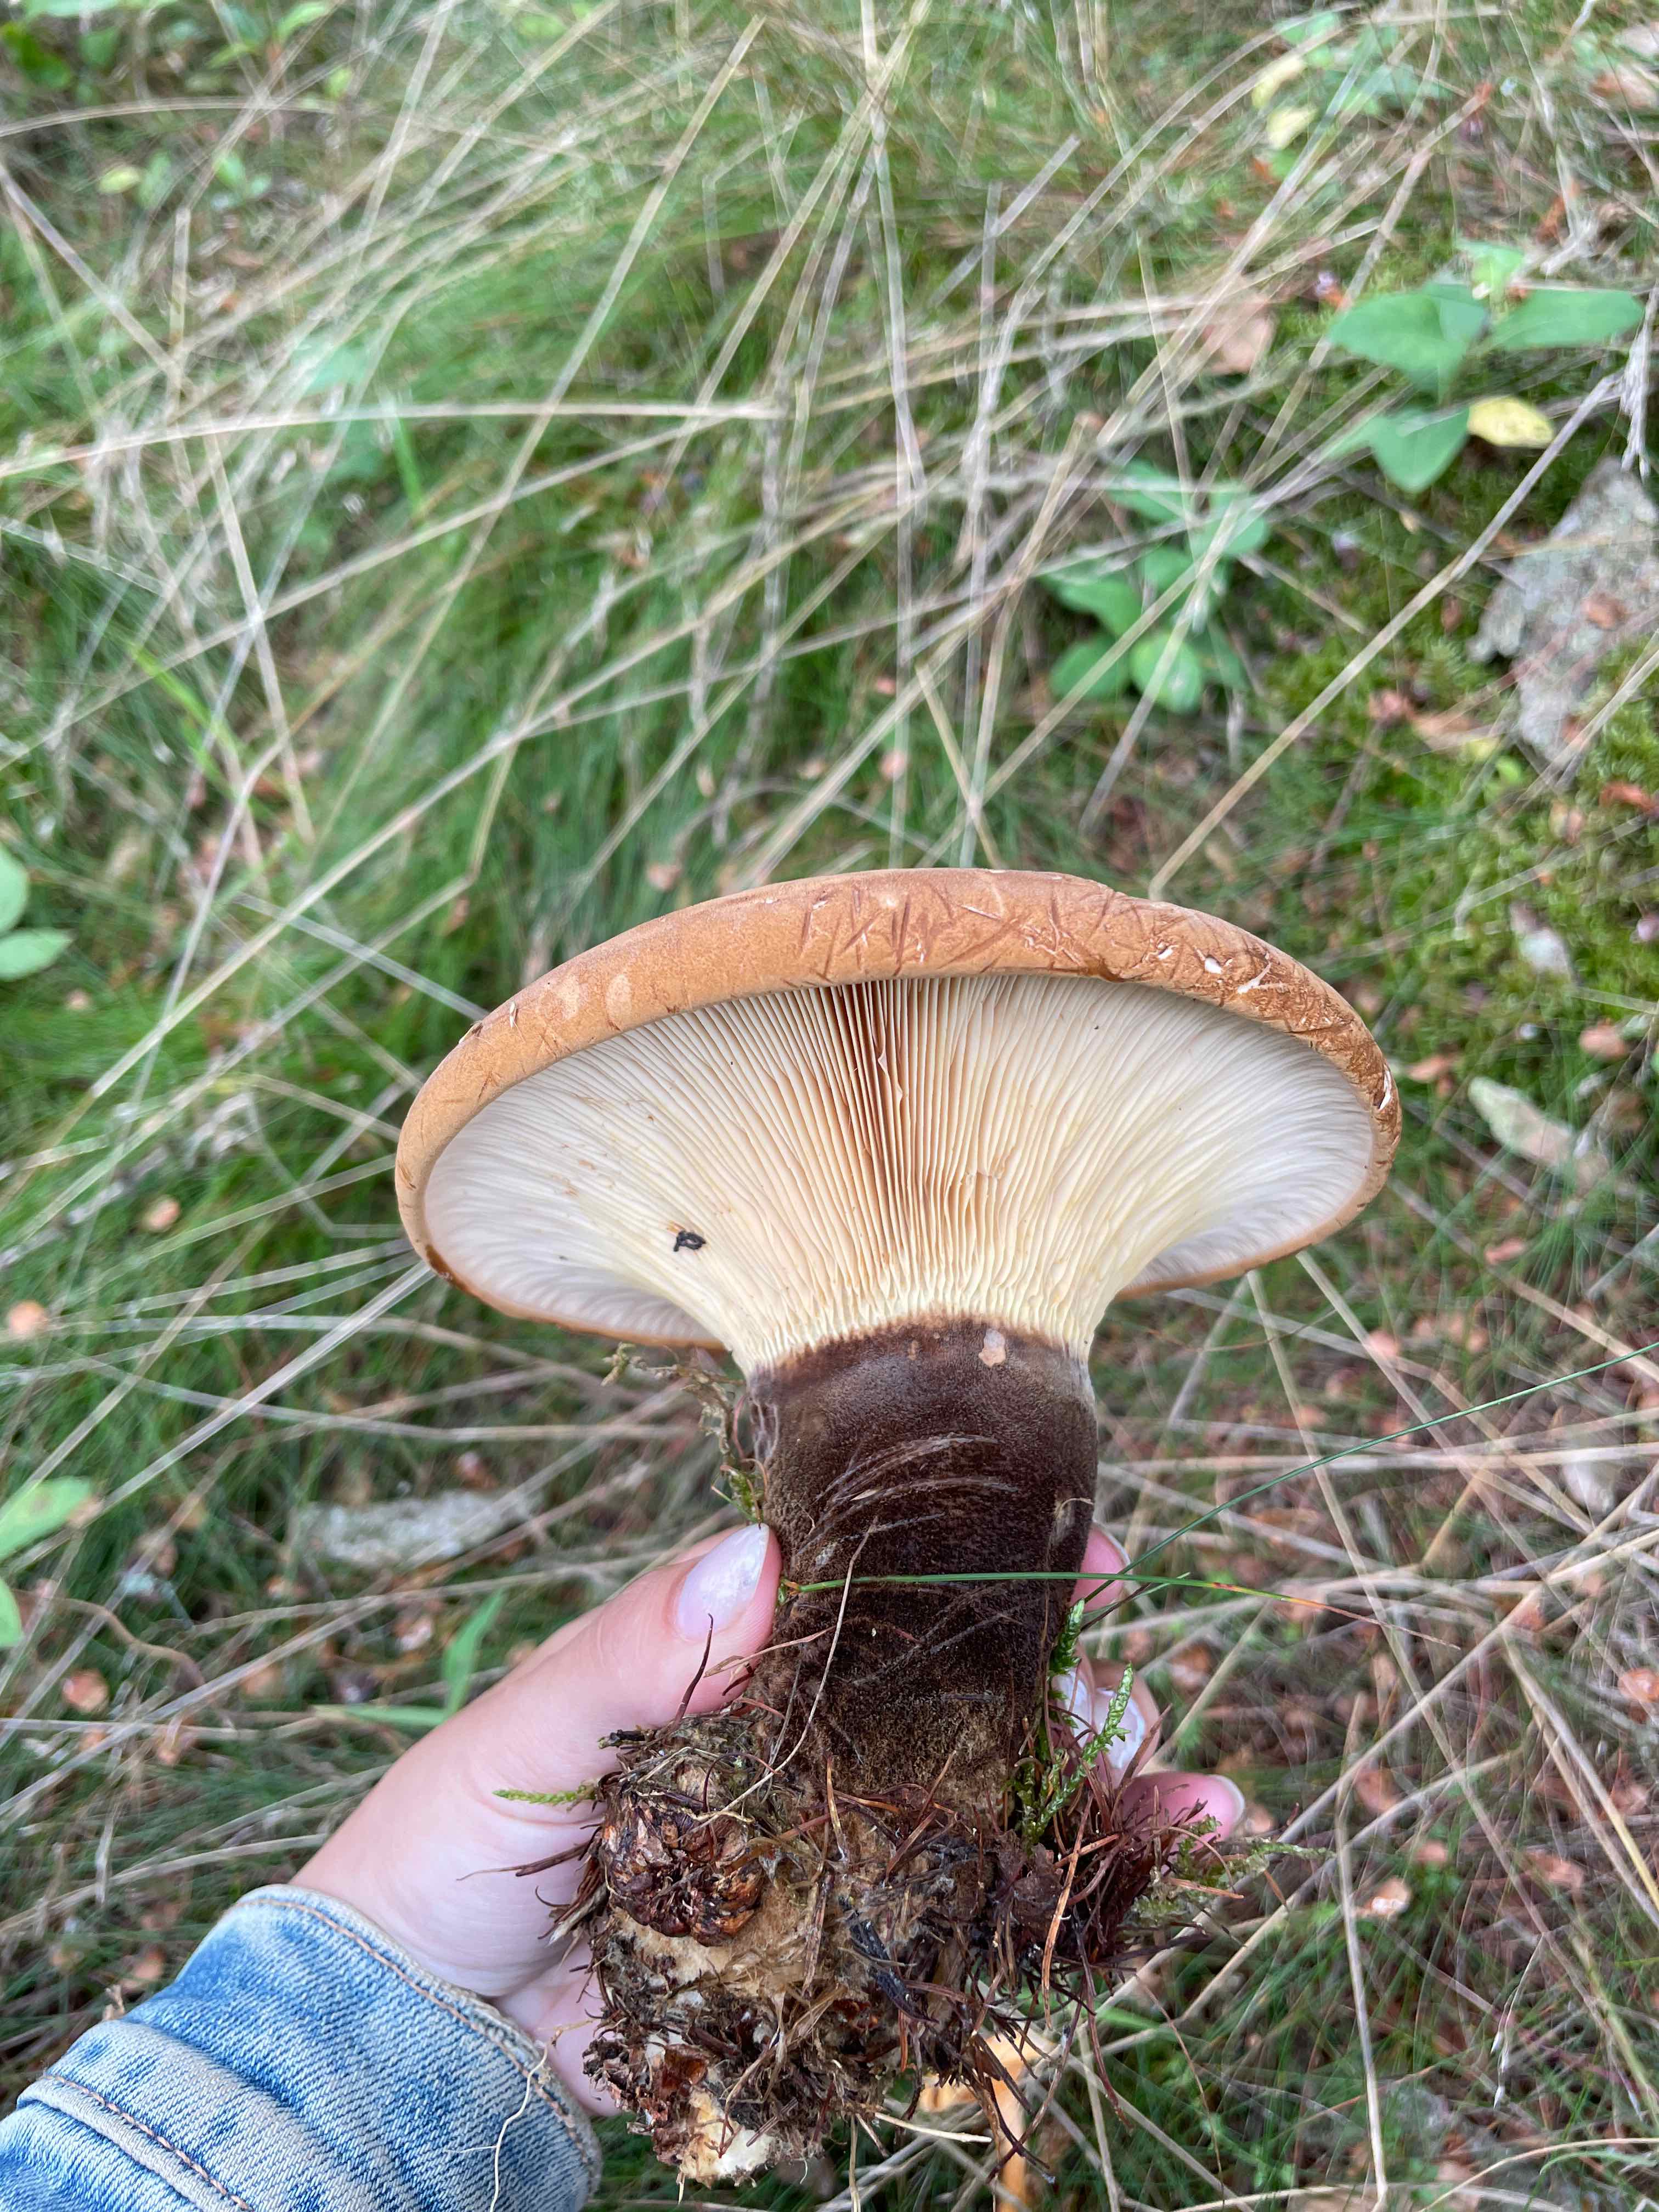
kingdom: Fungi
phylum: Basidiomycota
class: Agaricomycetes
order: Boletales
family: Tapinellaceae
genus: Tapinella
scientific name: Tapinella atrotomentosa
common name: sortfiltet viftesvamp
